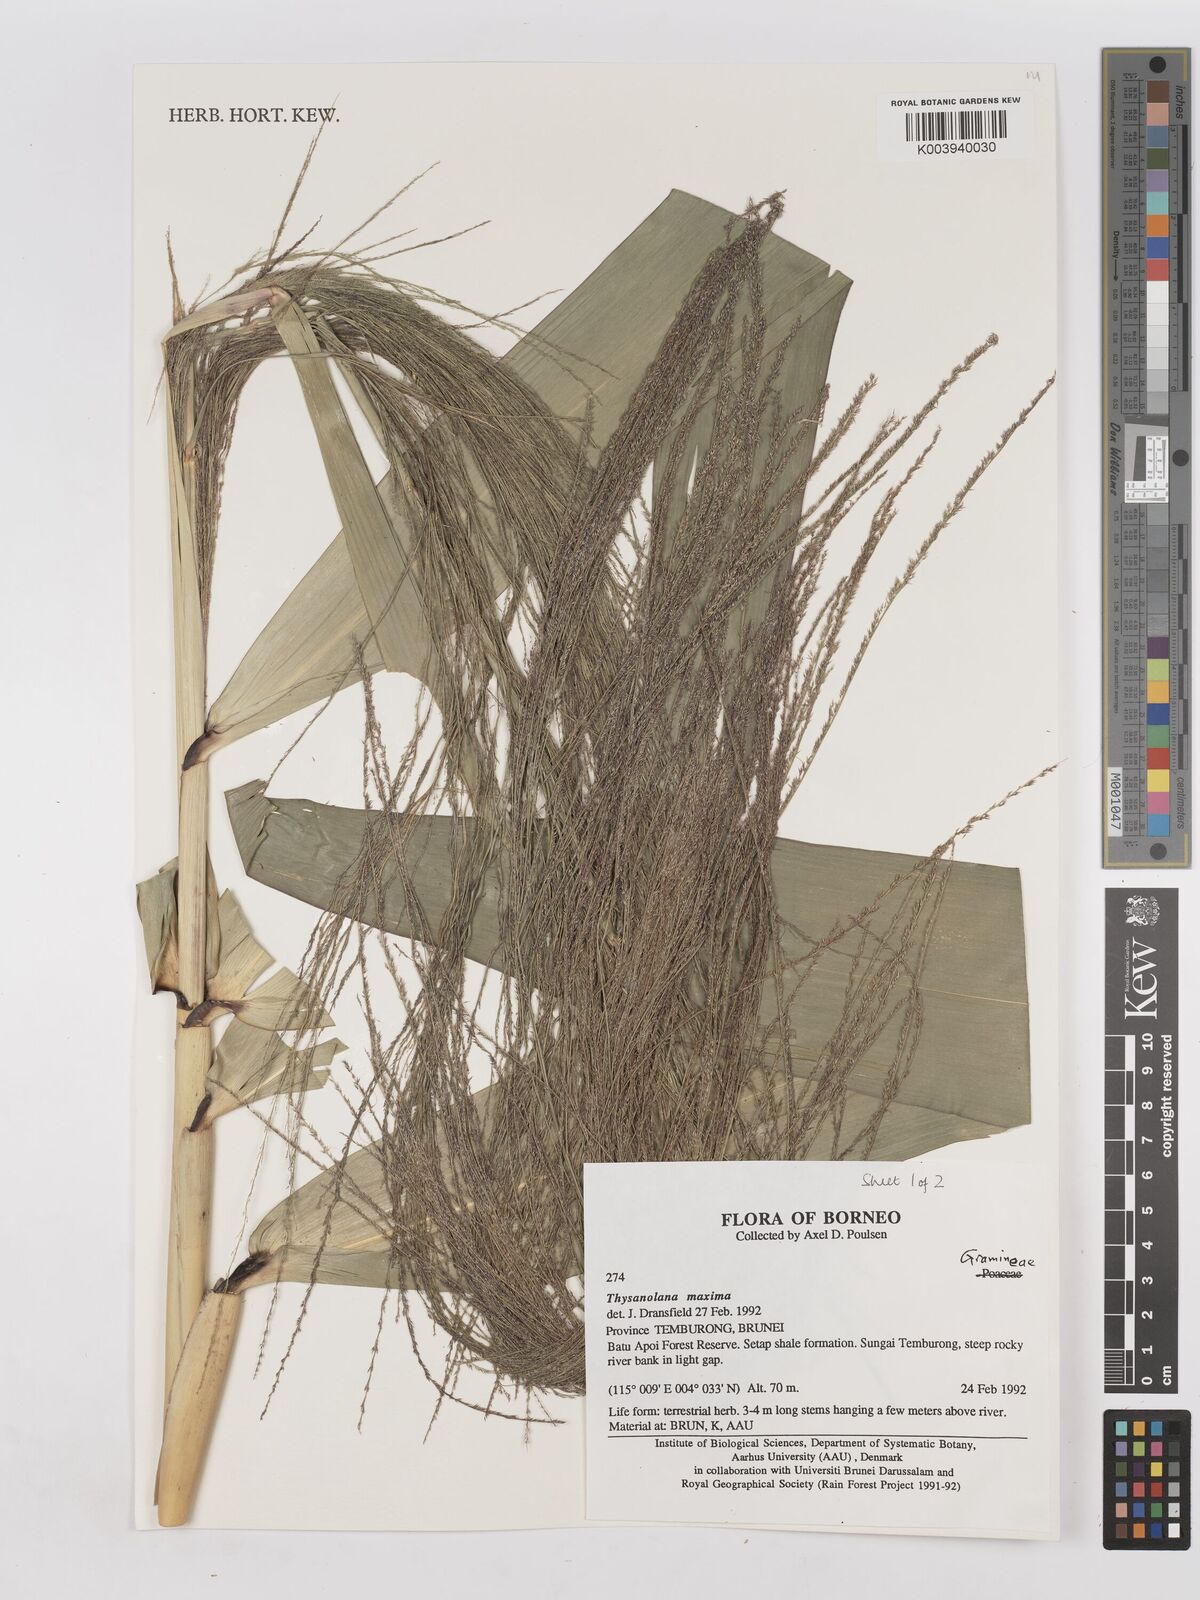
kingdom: Plantae
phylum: Tracheophyta
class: Liliopsida
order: Poales
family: Poaceae
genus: Thysanolaena
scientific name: Thysanolaena latifolia
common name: Tiger grass
